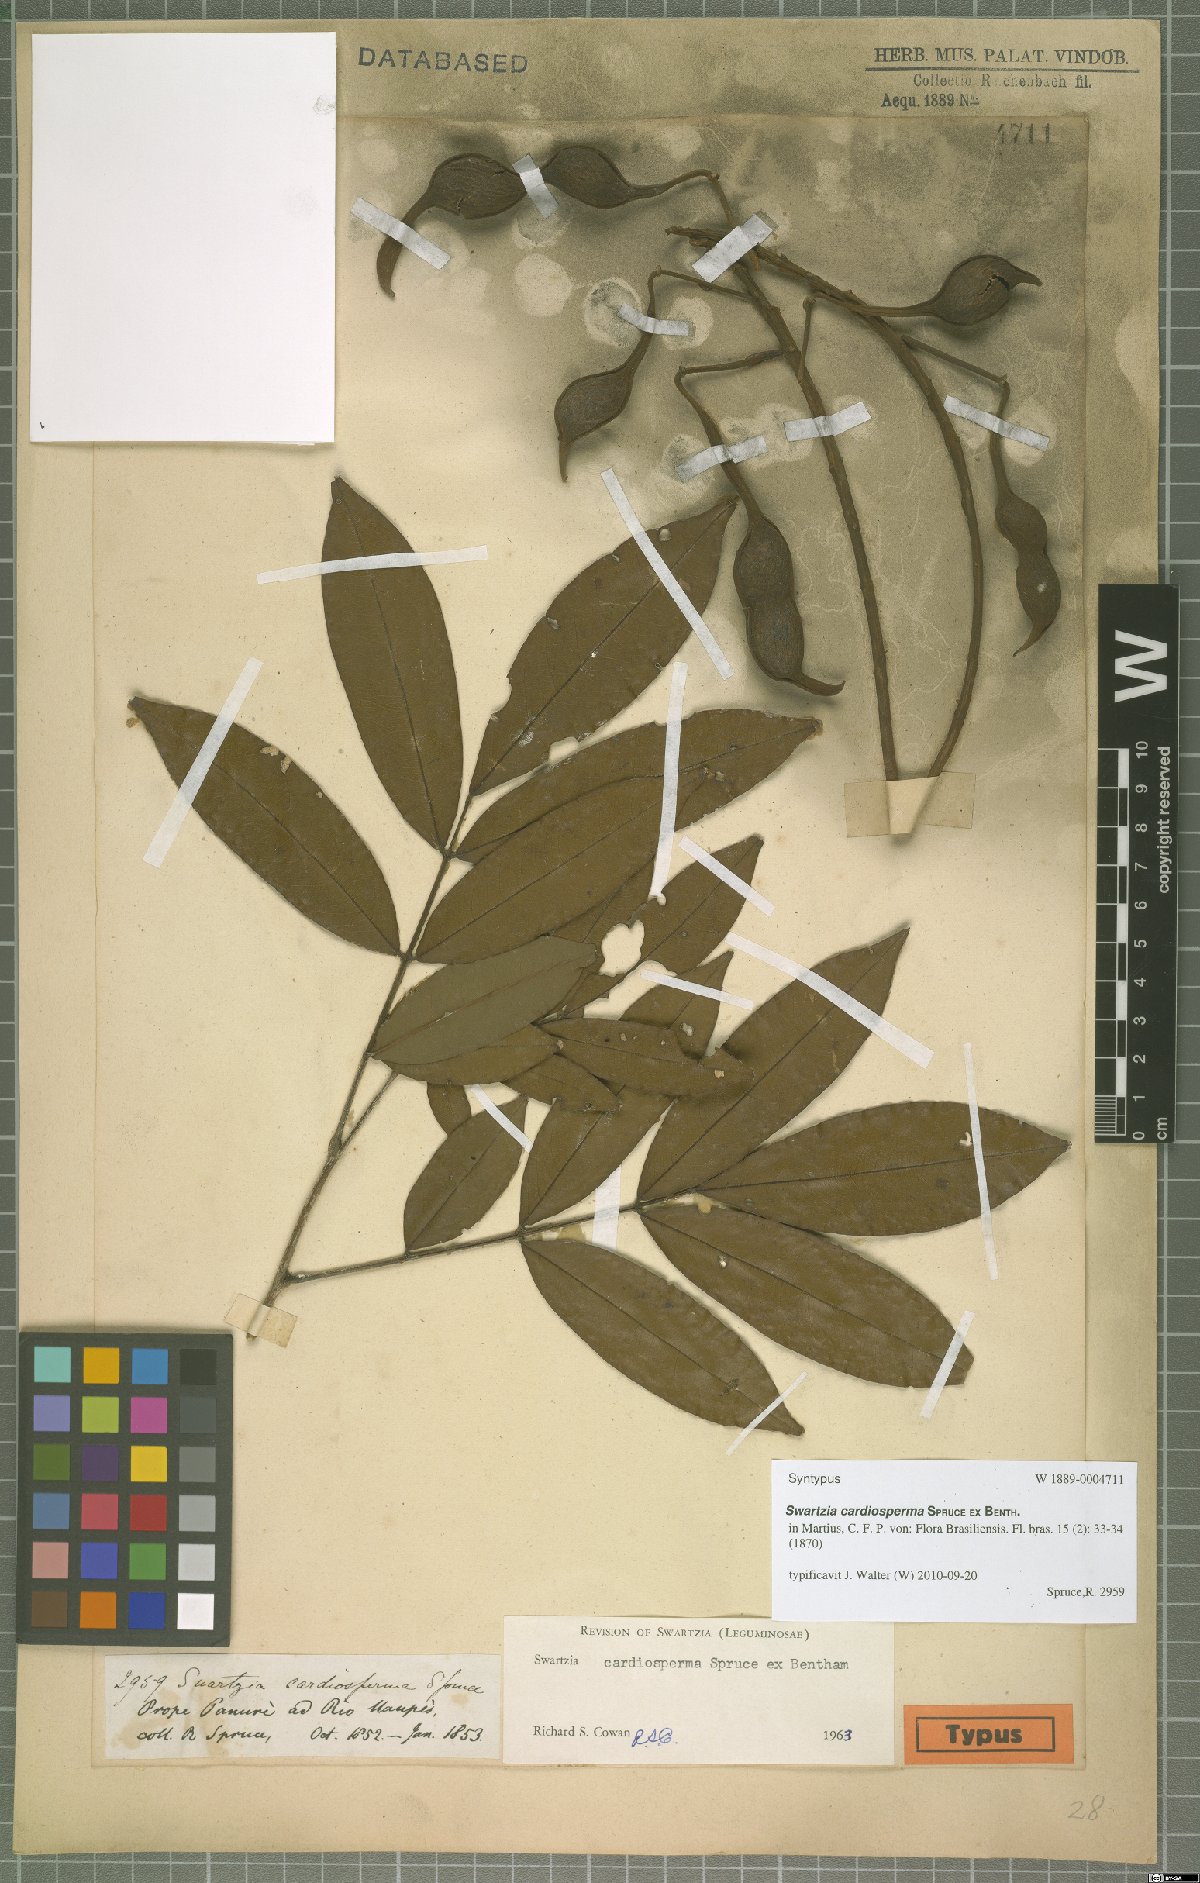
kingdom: Plantae
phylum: Tracheophyta
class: Magnoliopsida
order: Fabales
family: Fabaceae
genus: Swartzia
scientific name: Swartzia cardiosperma
